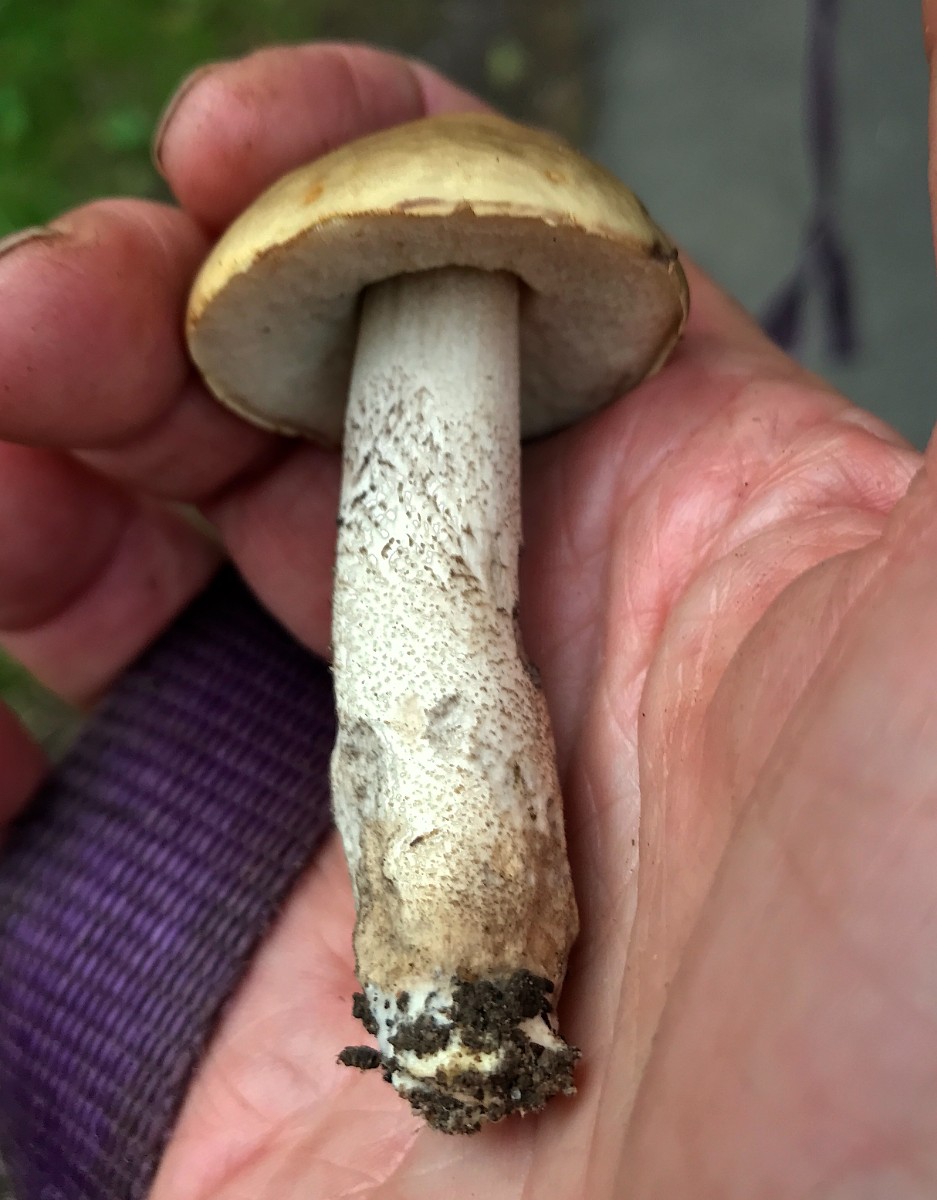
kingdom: Fungi
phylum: Basidiomycota
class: Agaricomycetes
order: Boletales
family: Boletaceae
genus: Leccinellum
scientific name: Leccinellum pseudoscabrum
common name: avnbøg-skælrørhat
